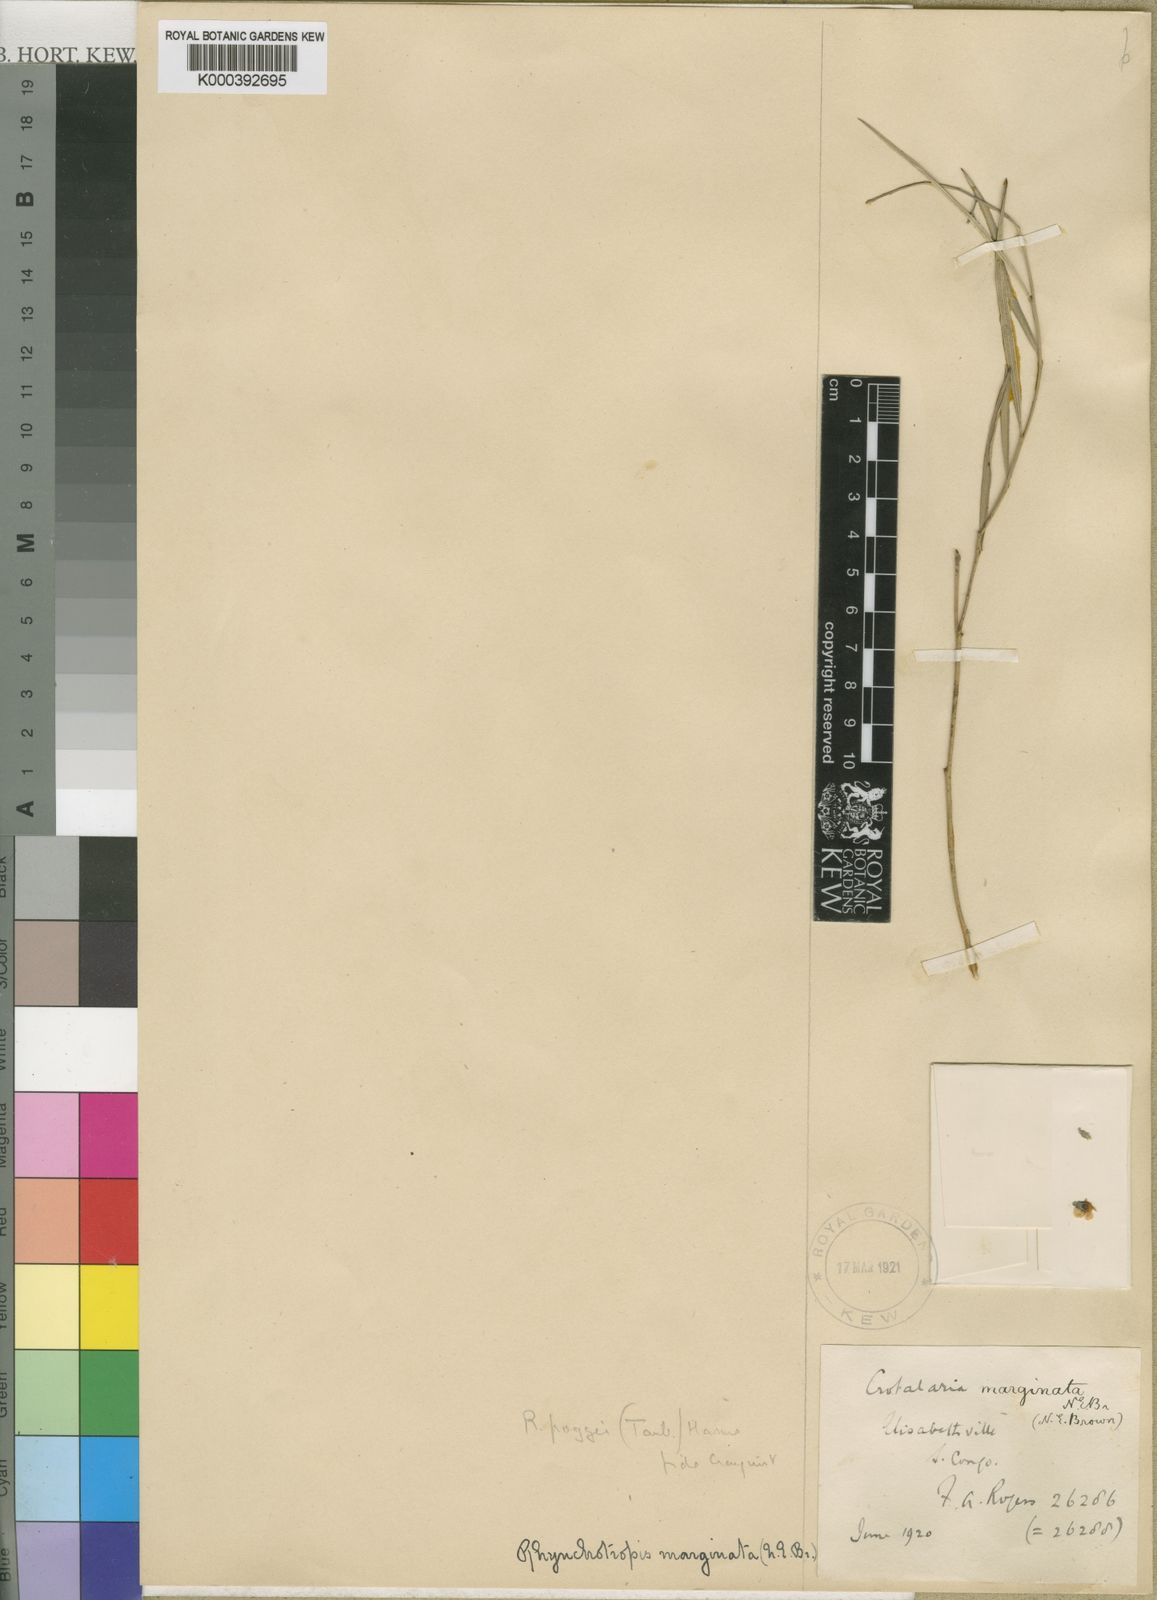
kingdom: Plantae
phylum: Tracheophyta
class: Magnoliopsida
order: Fabales
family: Fabaceae
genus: Rhynchotropis
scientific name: Rhynchotropis marginata
